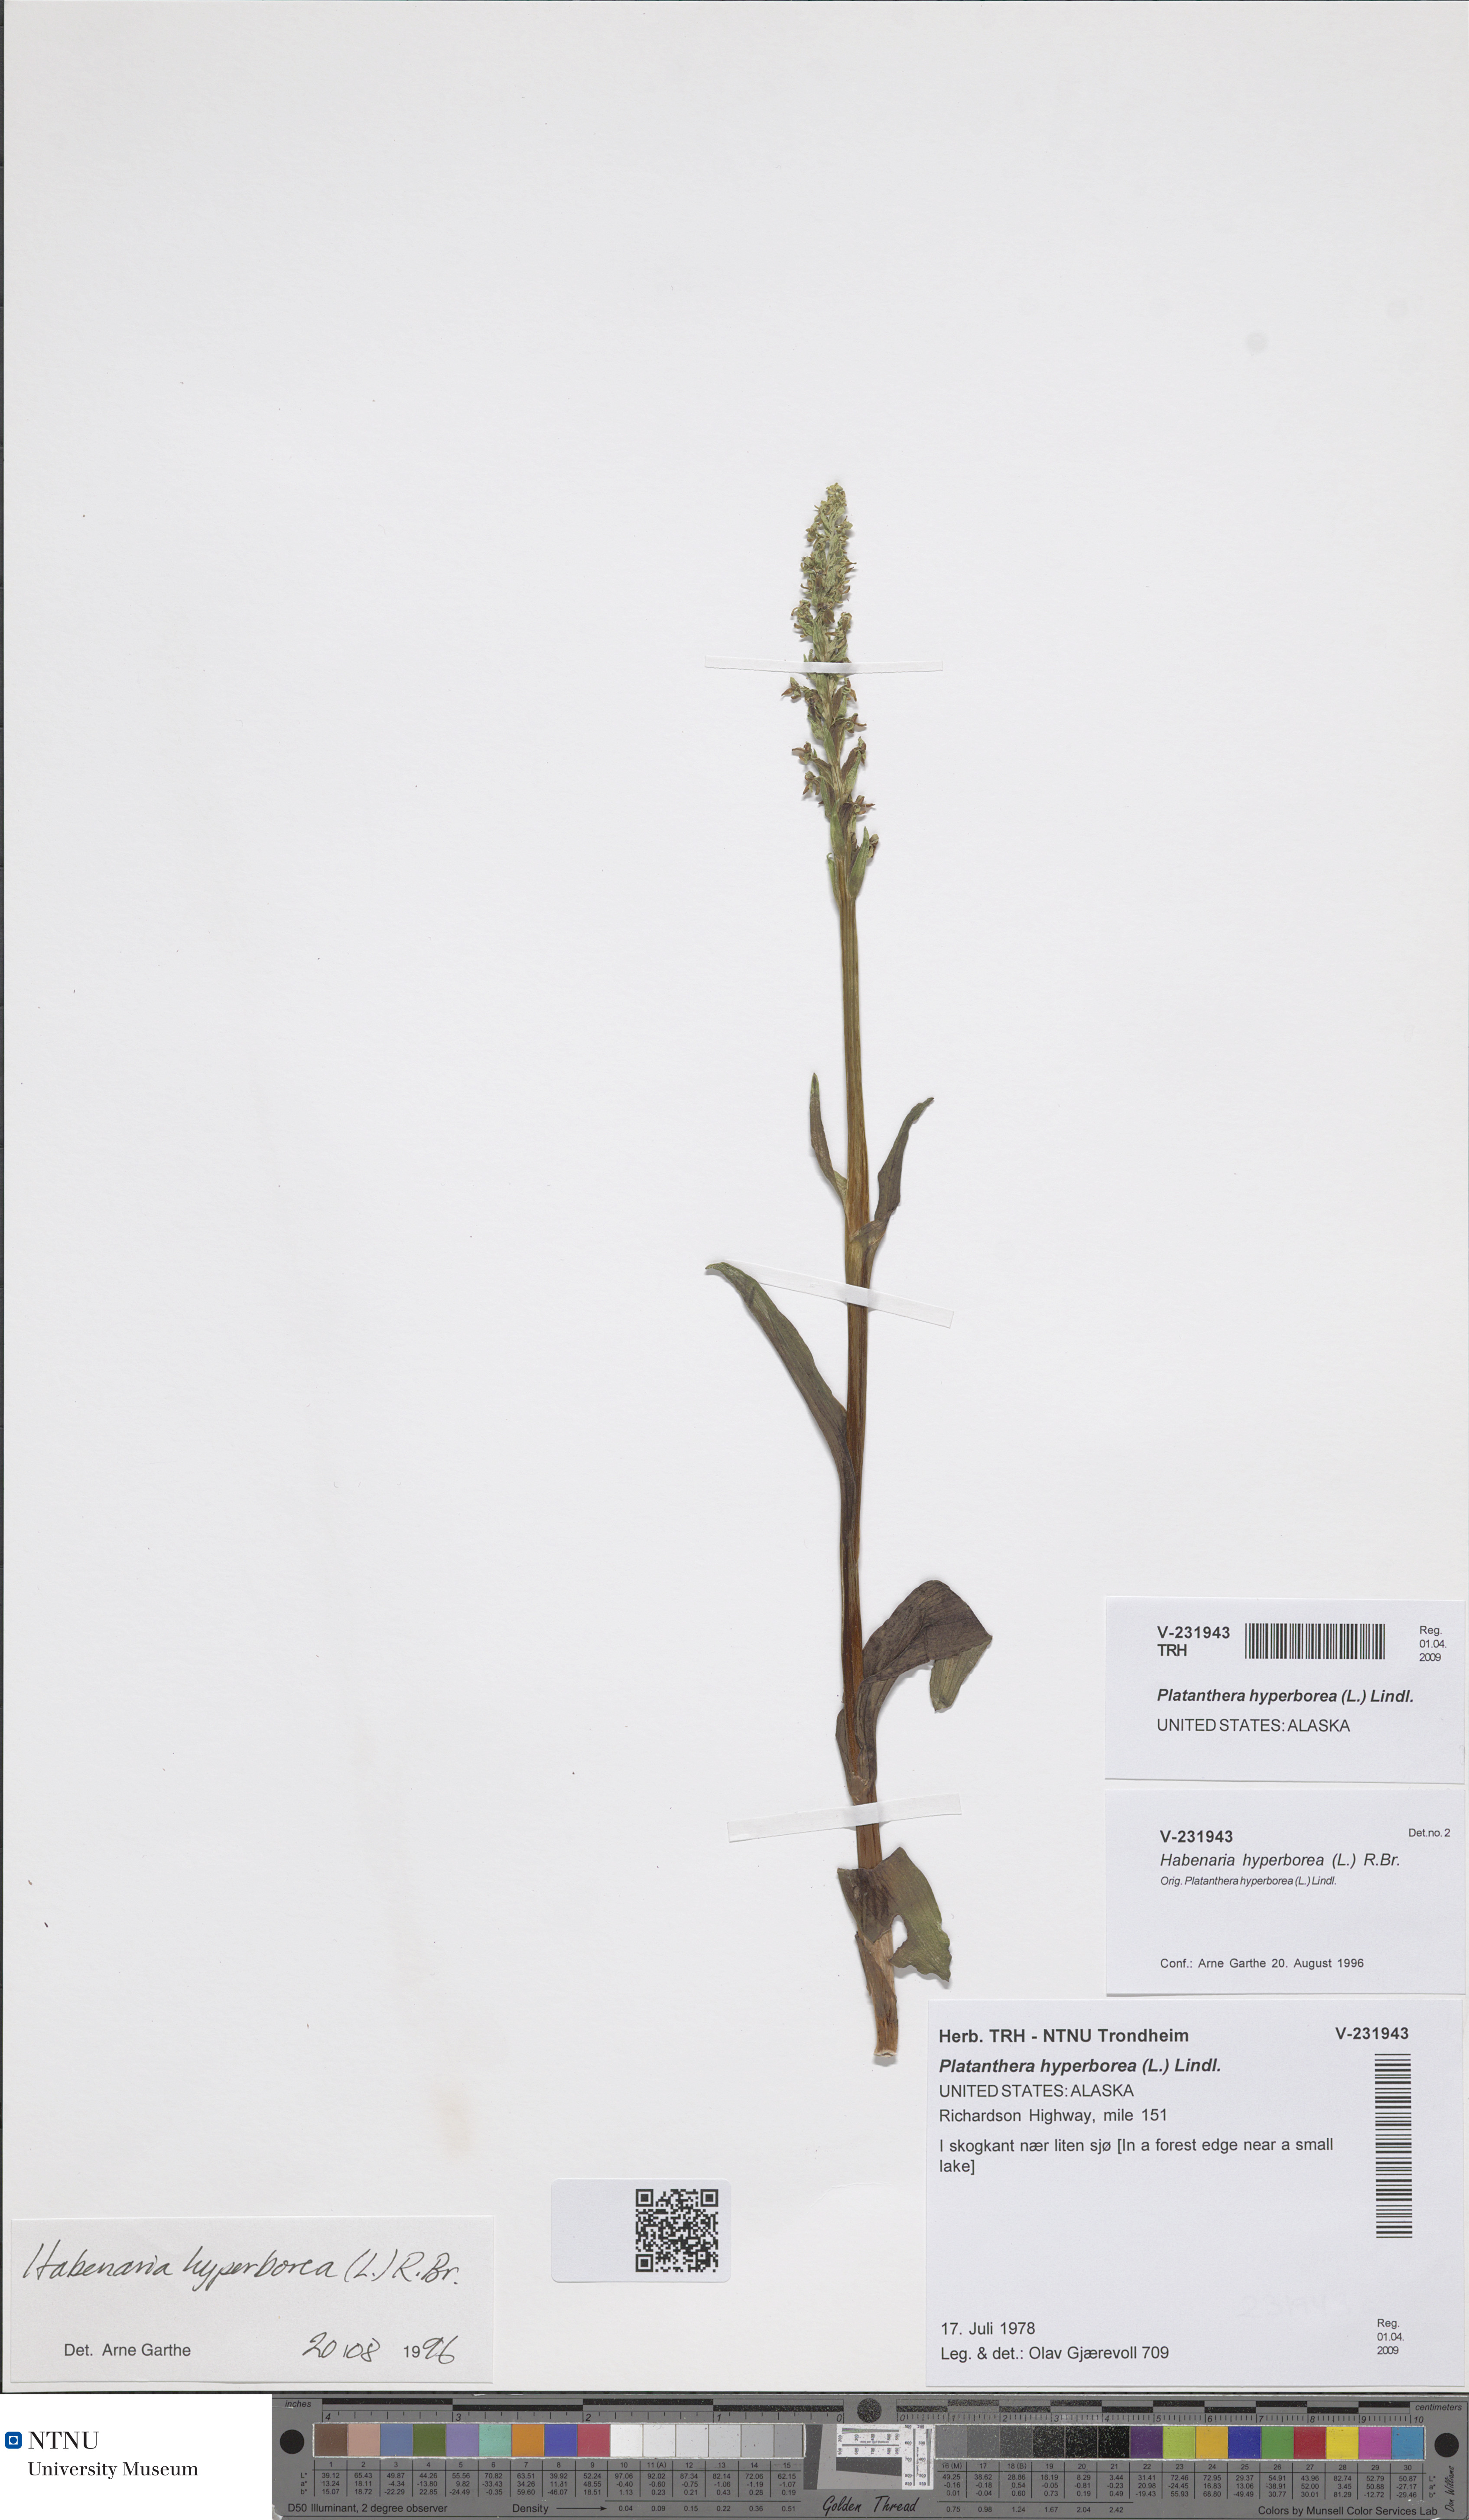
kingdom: Plantae
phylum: Tracheophyta
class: Liliopsida
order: Asparagales
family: Orchidaceae
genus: Platanthera
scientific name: Platanthera hyperborea
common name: Northern green orchid
